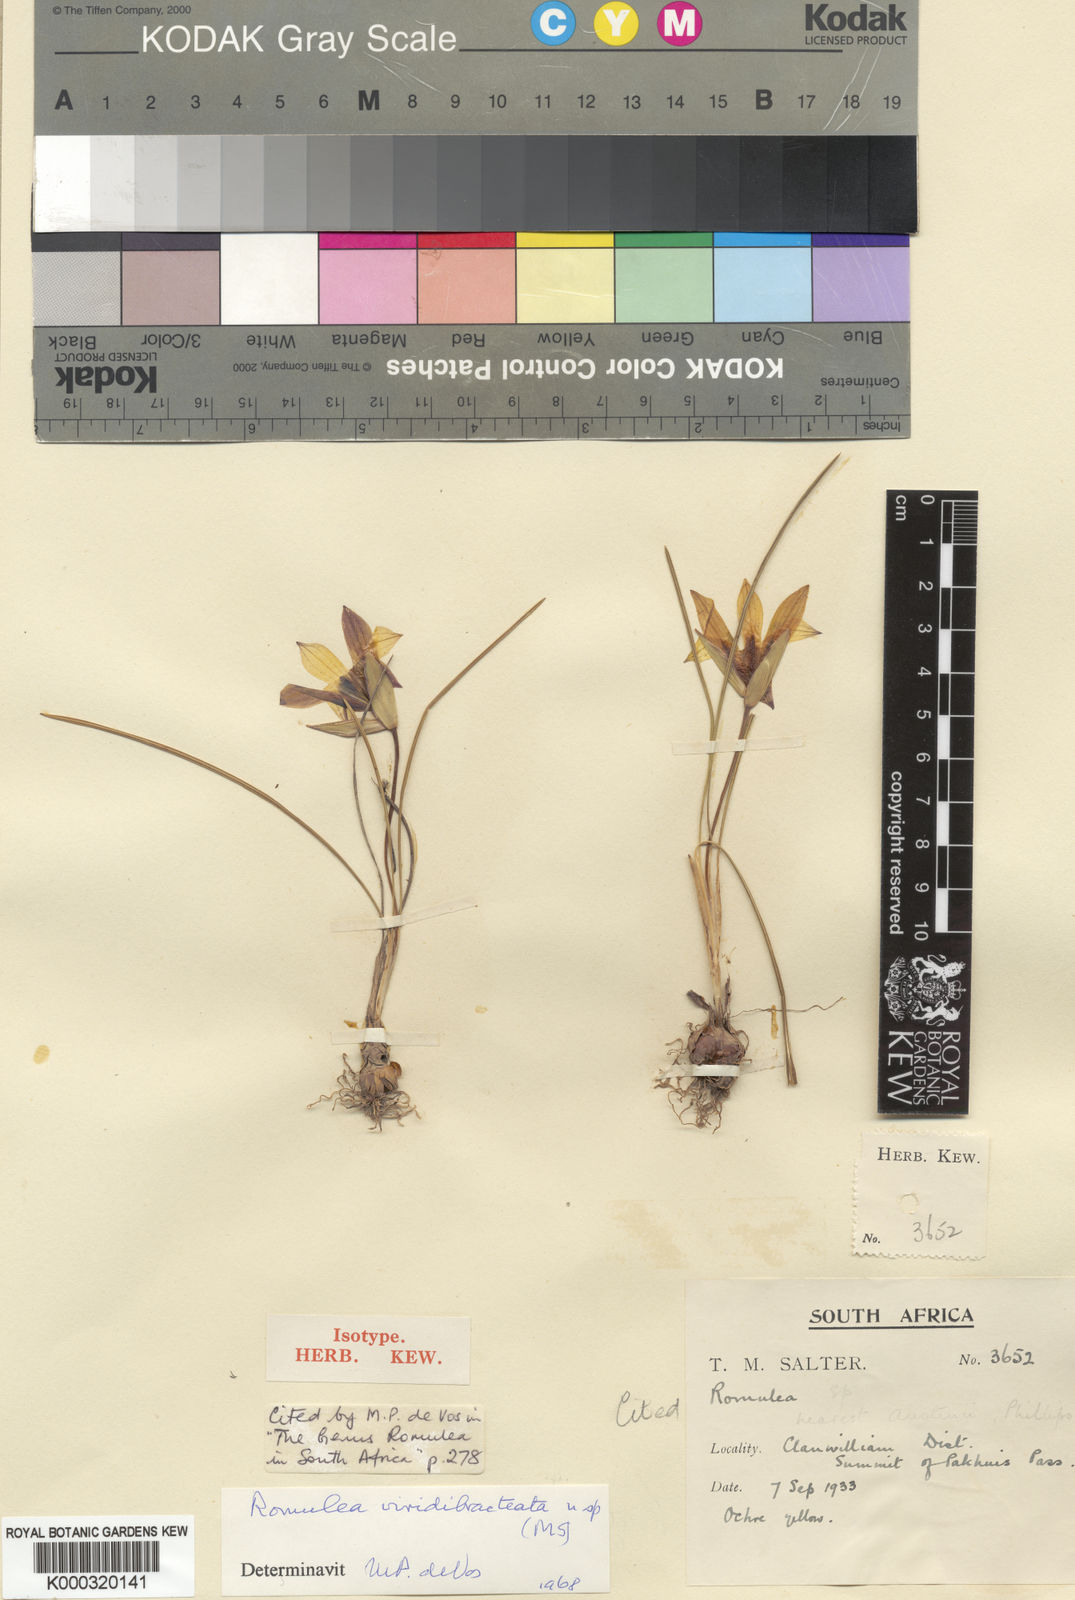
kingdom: Plantae
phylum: Tracheophyta
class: Liliopsida
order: Asparagales
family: Iridaceae
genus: Romulea
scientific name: Romulea viridibracteata
